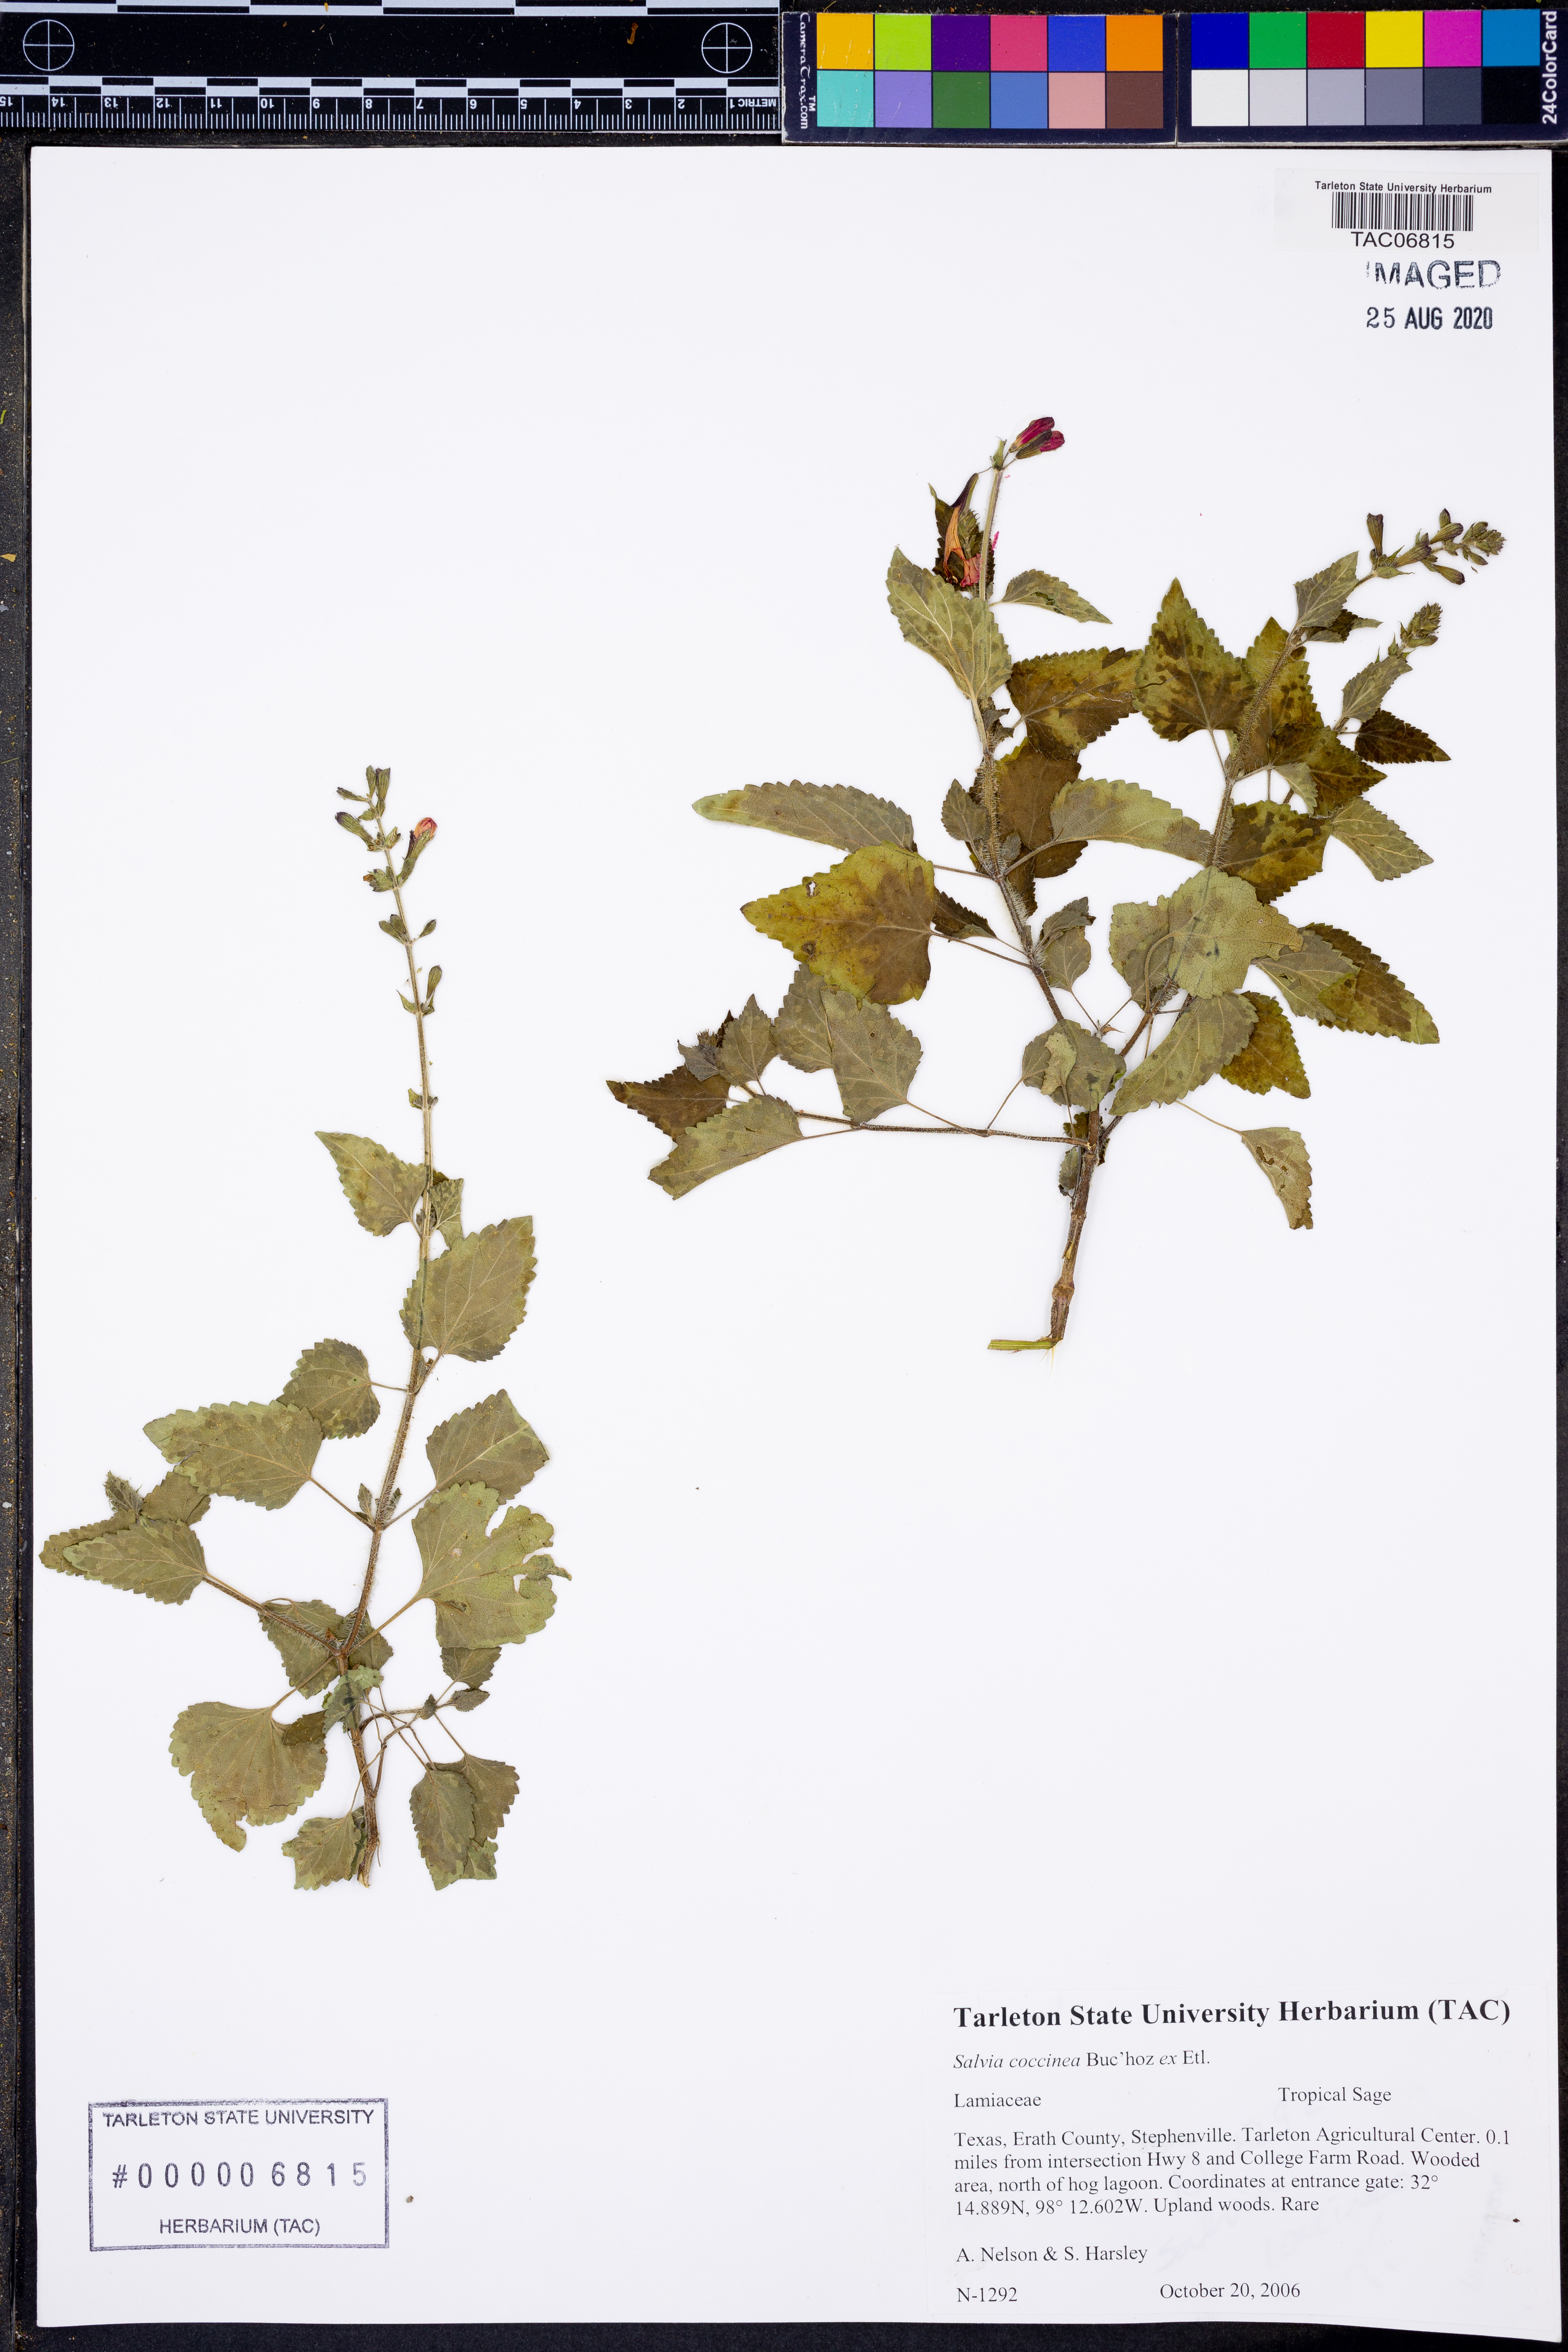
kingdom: Plantae
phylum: Tracheophyta
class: Magnoliopsida
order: Lamiales
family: Lamiaceae
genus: Salvia
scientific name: Salvia coccinea
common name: Blood sage
